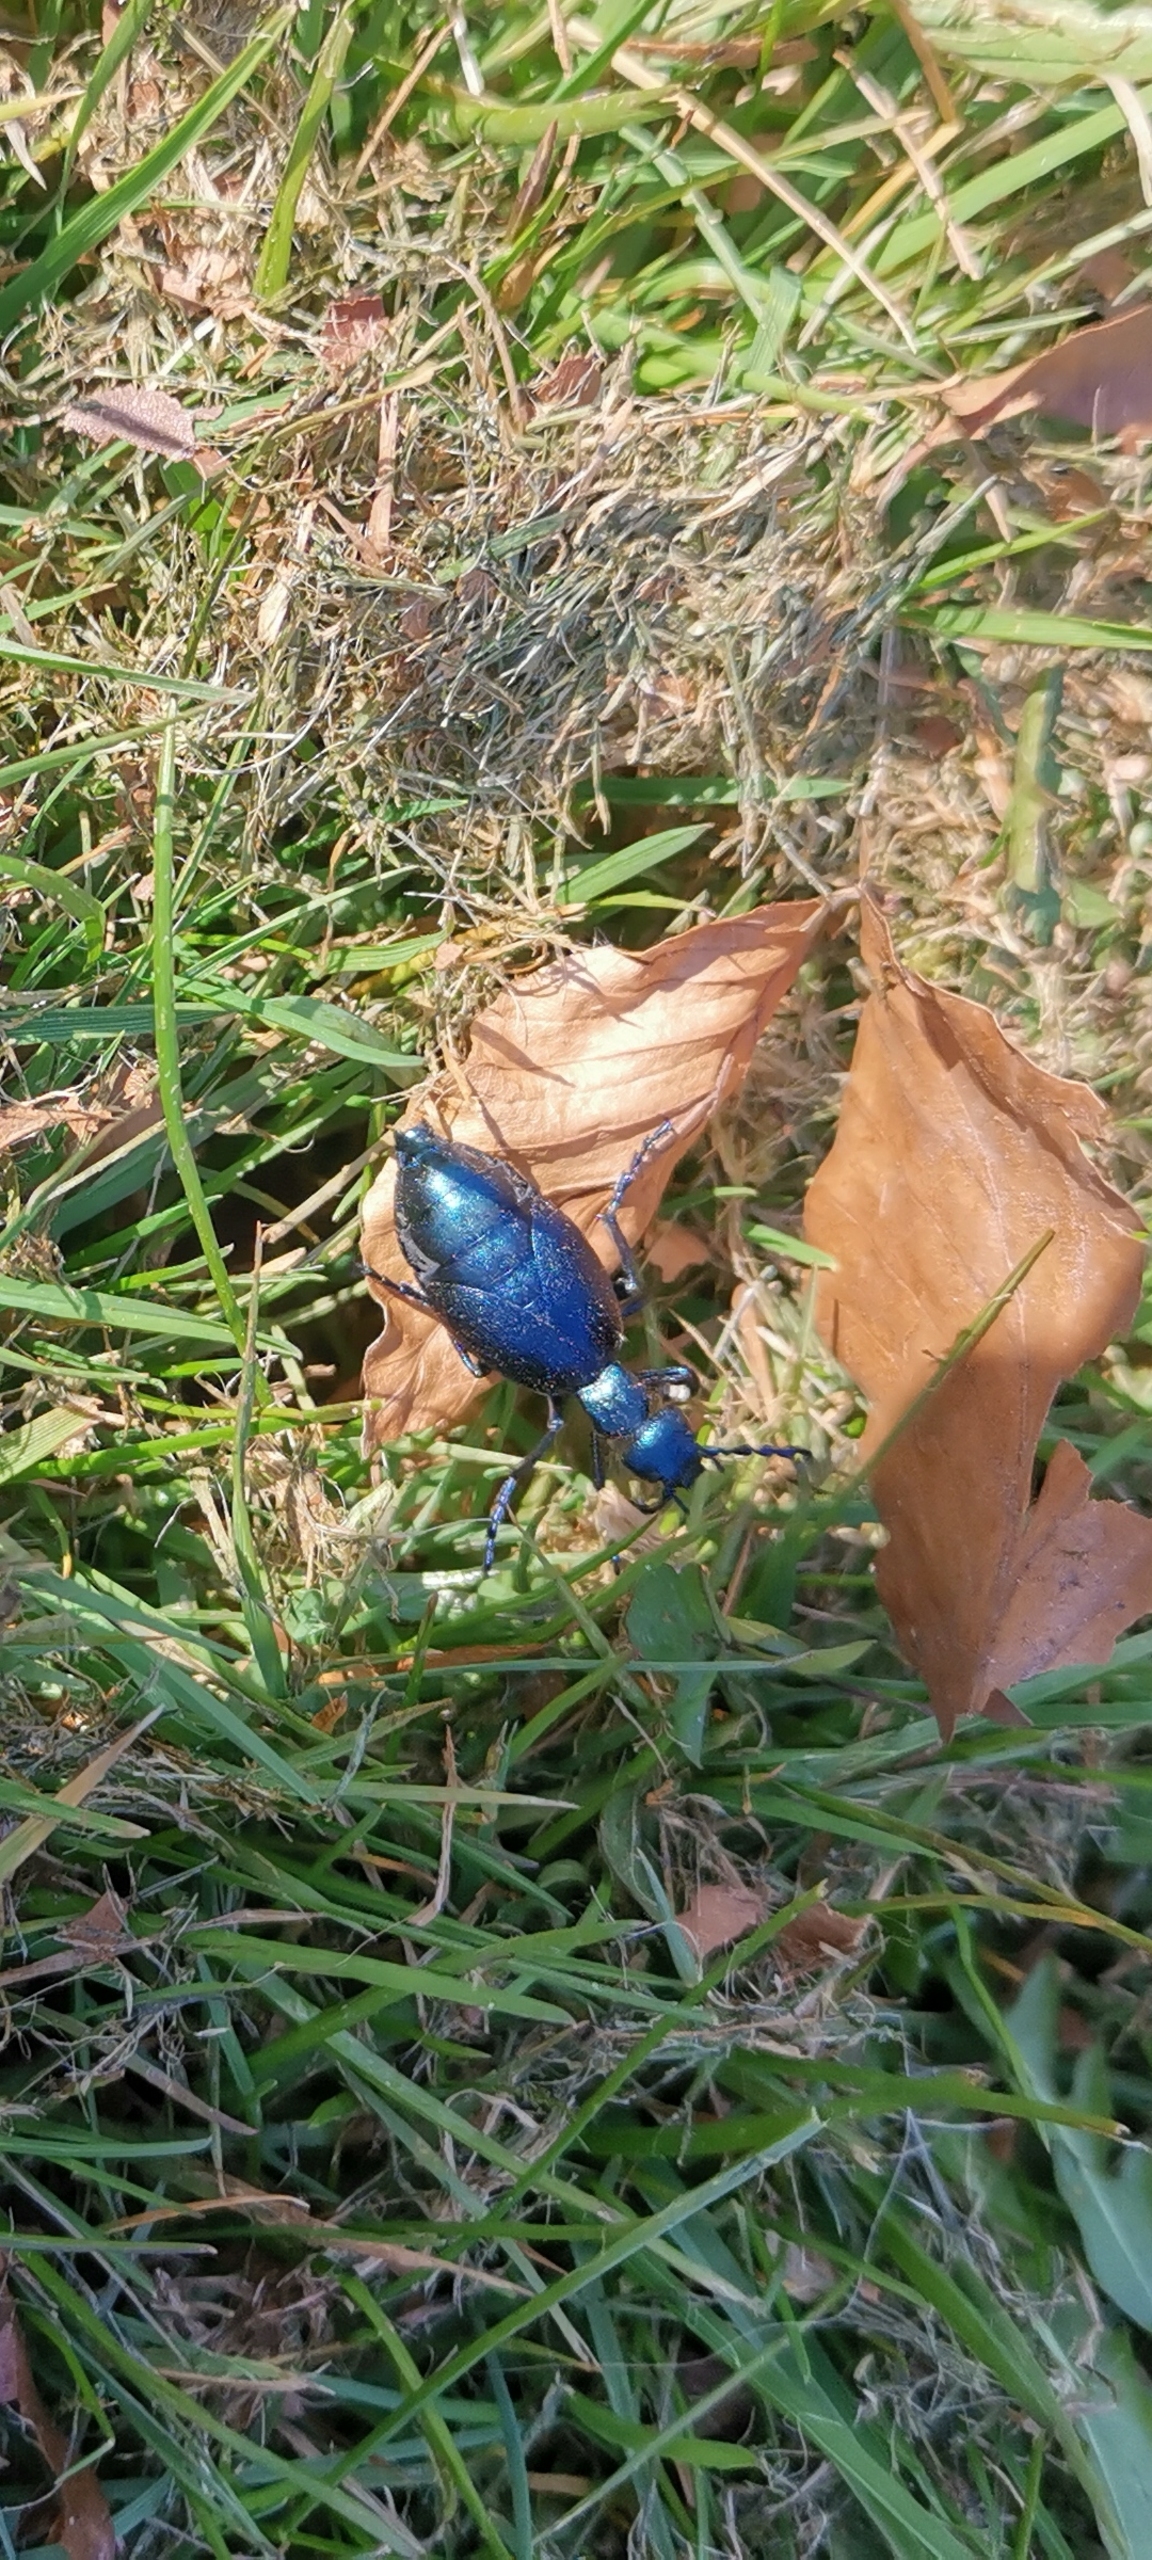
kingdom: Animalia
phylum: Arthropoda
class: Insecta
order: Coleoptera
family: Meloidae
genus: Meloe
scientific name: Meloe violaceus
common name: Blå oliebille
